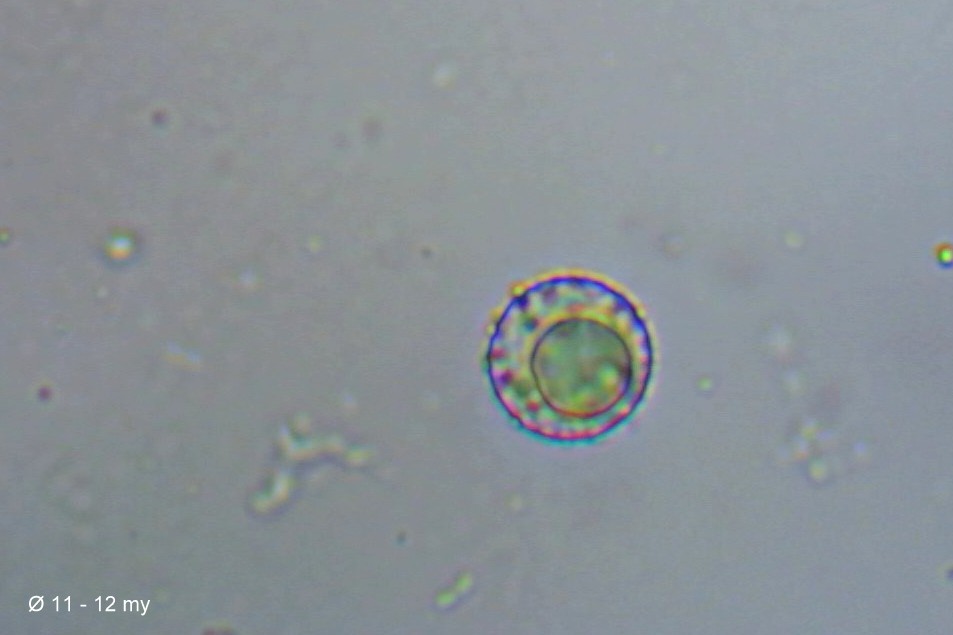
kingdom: Fungi
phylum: Ascomycota
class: Pezizomycetes
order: Pezizales
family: Pyronemataceae
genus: Lamprospora
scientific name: Lamprospora wrightii
